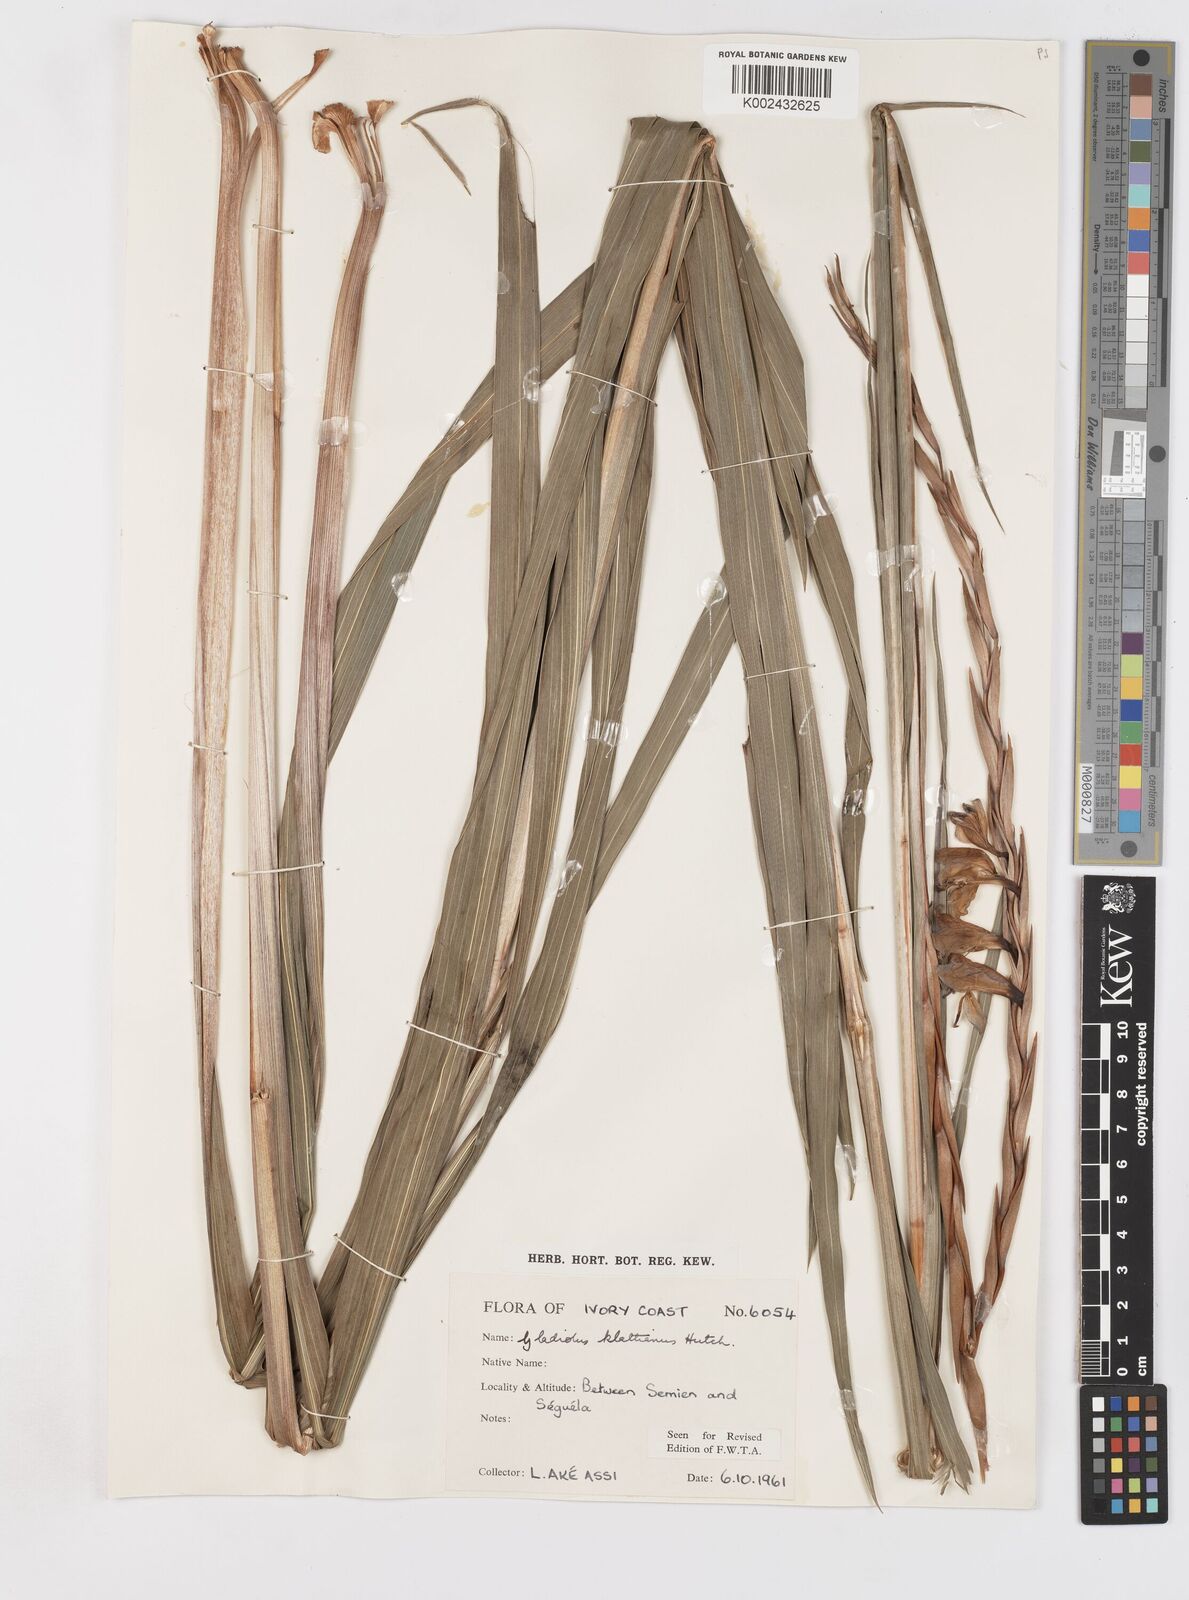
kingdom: Plantae
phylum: Tracheophyta
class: Liliopsida
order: Asparagales
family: Iridaceae
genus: Gladiolus
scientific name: Gladiolus gregarius
